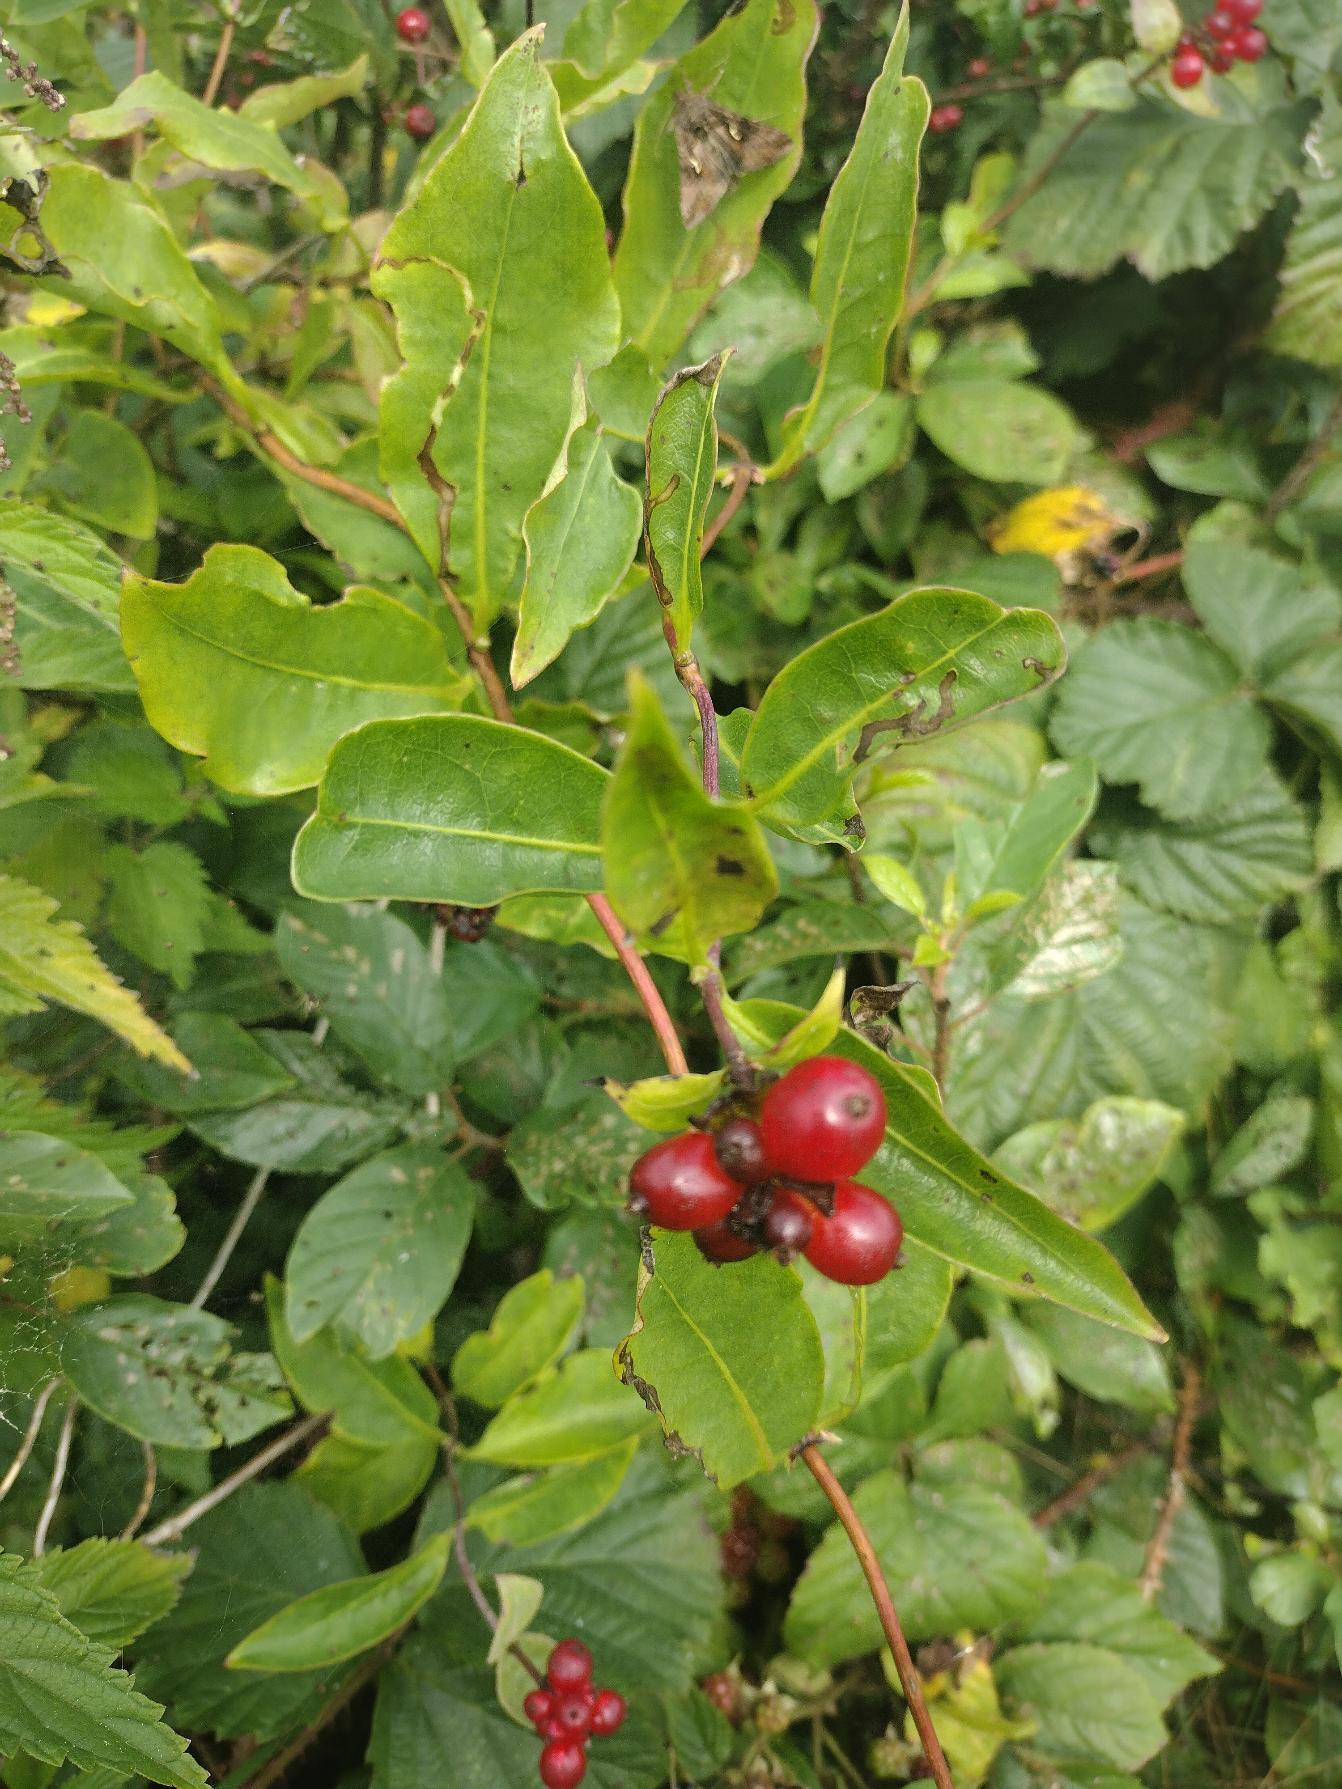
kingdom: Plantae
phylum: Tracheophyta
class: Magnoliopsida
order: Dipsacales
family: Caprifoliaceae
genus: Lonicera
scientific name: Lonicera periclymenum
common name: Almindelig gedeblad
